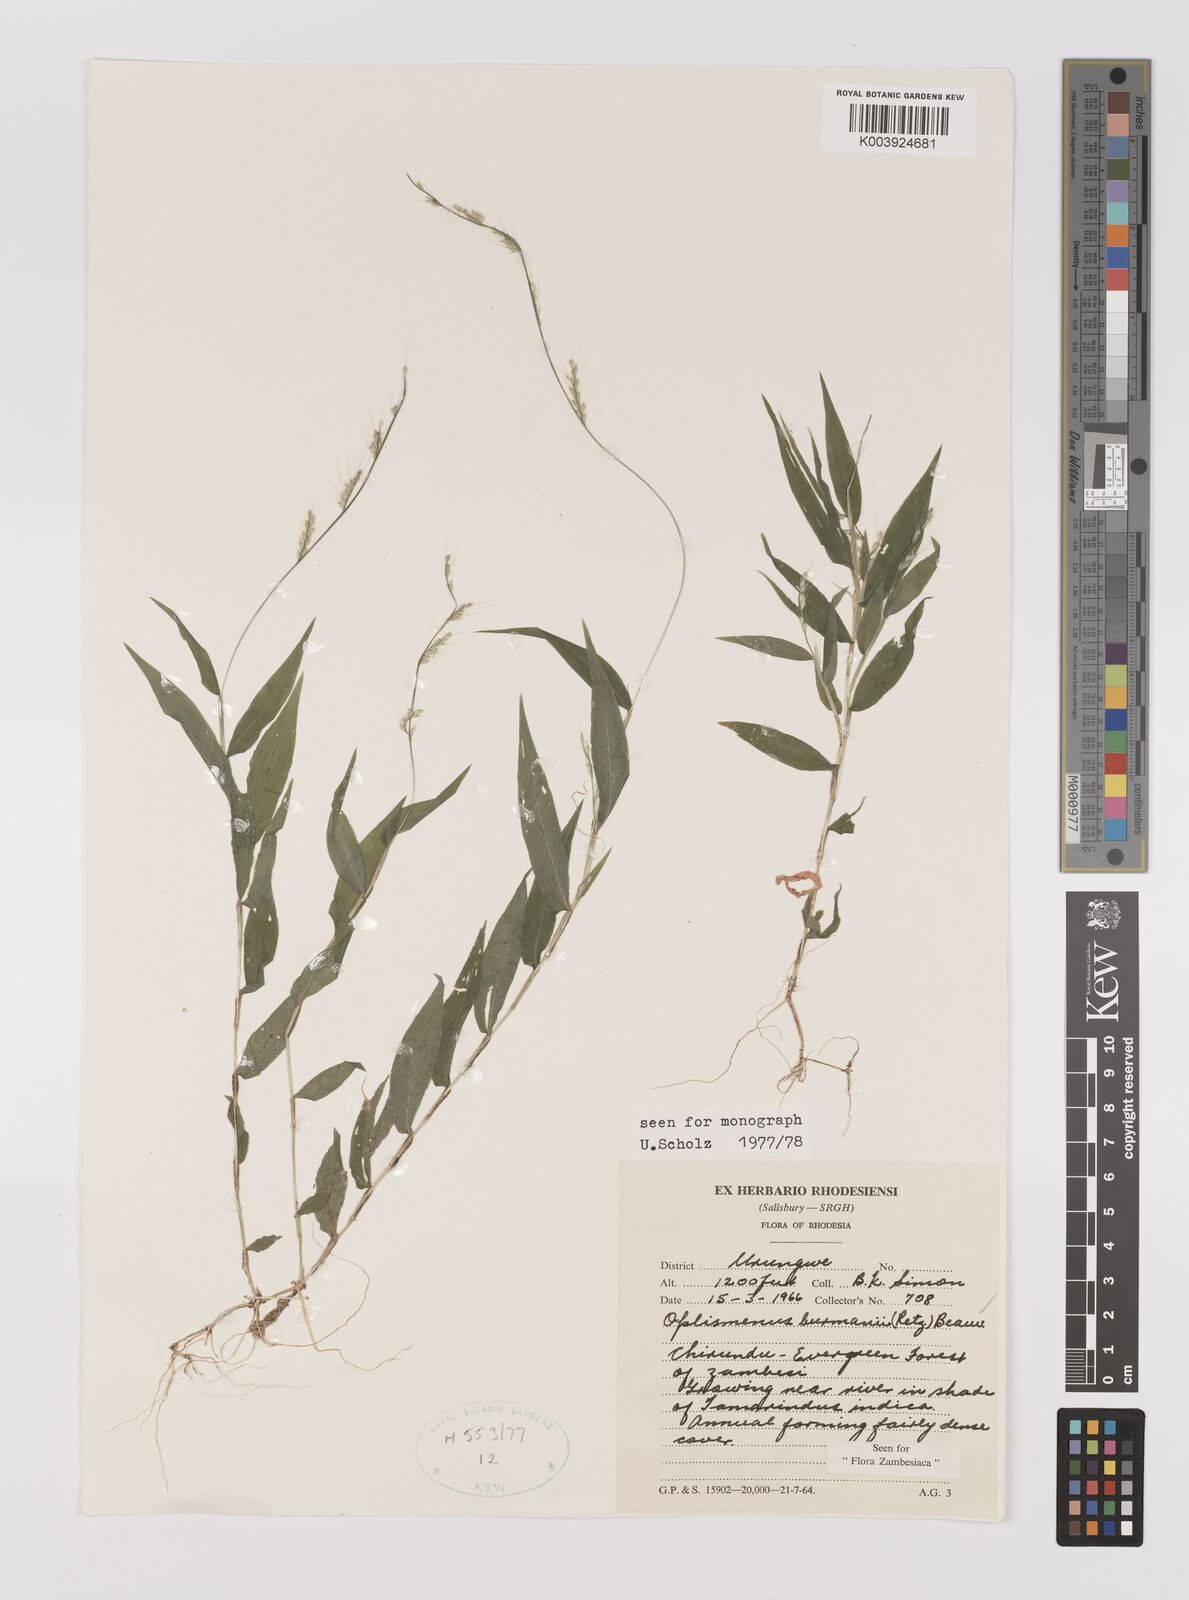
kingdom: Plantae
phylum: Tracheophyta
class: Liliopsida
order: Poales
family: Poaceae
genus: Oplismenus
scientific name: Oplismenus burmanni
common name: Burmann's basketgrass
